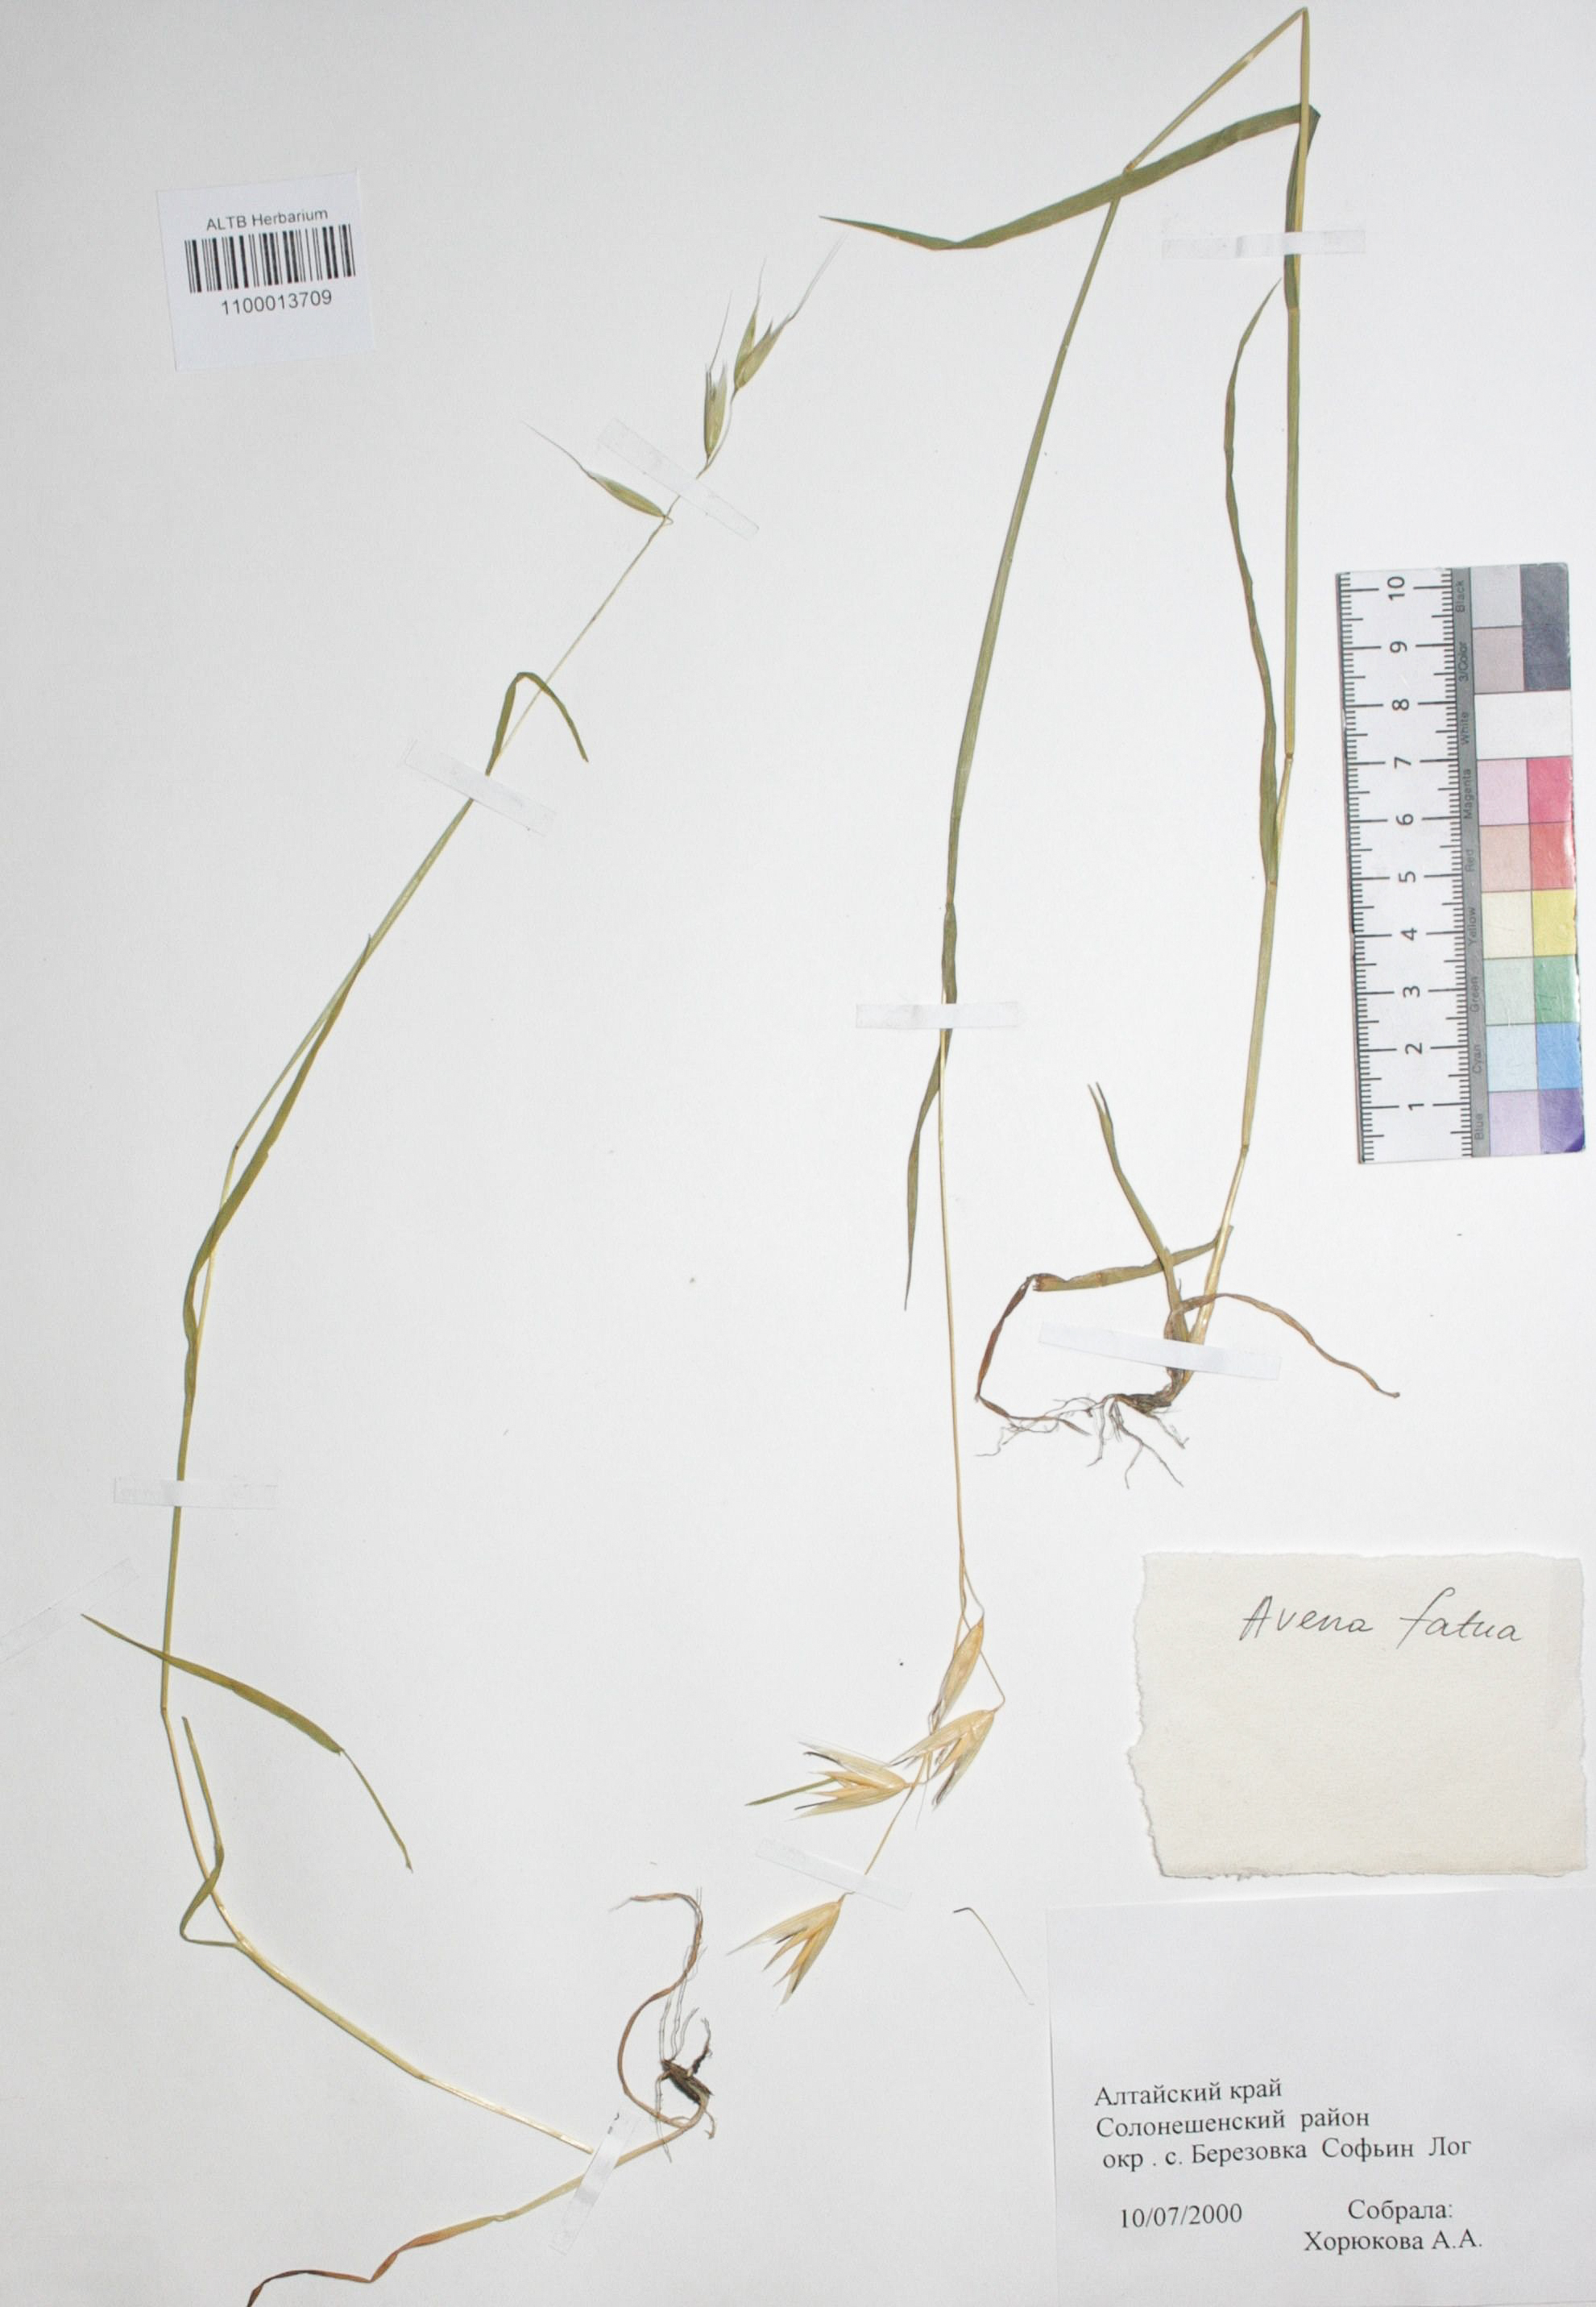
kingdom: Plantae
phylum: Tracheophyta
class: Liliopsida
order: Poales
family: Poaceae
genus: Avena
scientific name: Avena fatua
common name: Wild oat
